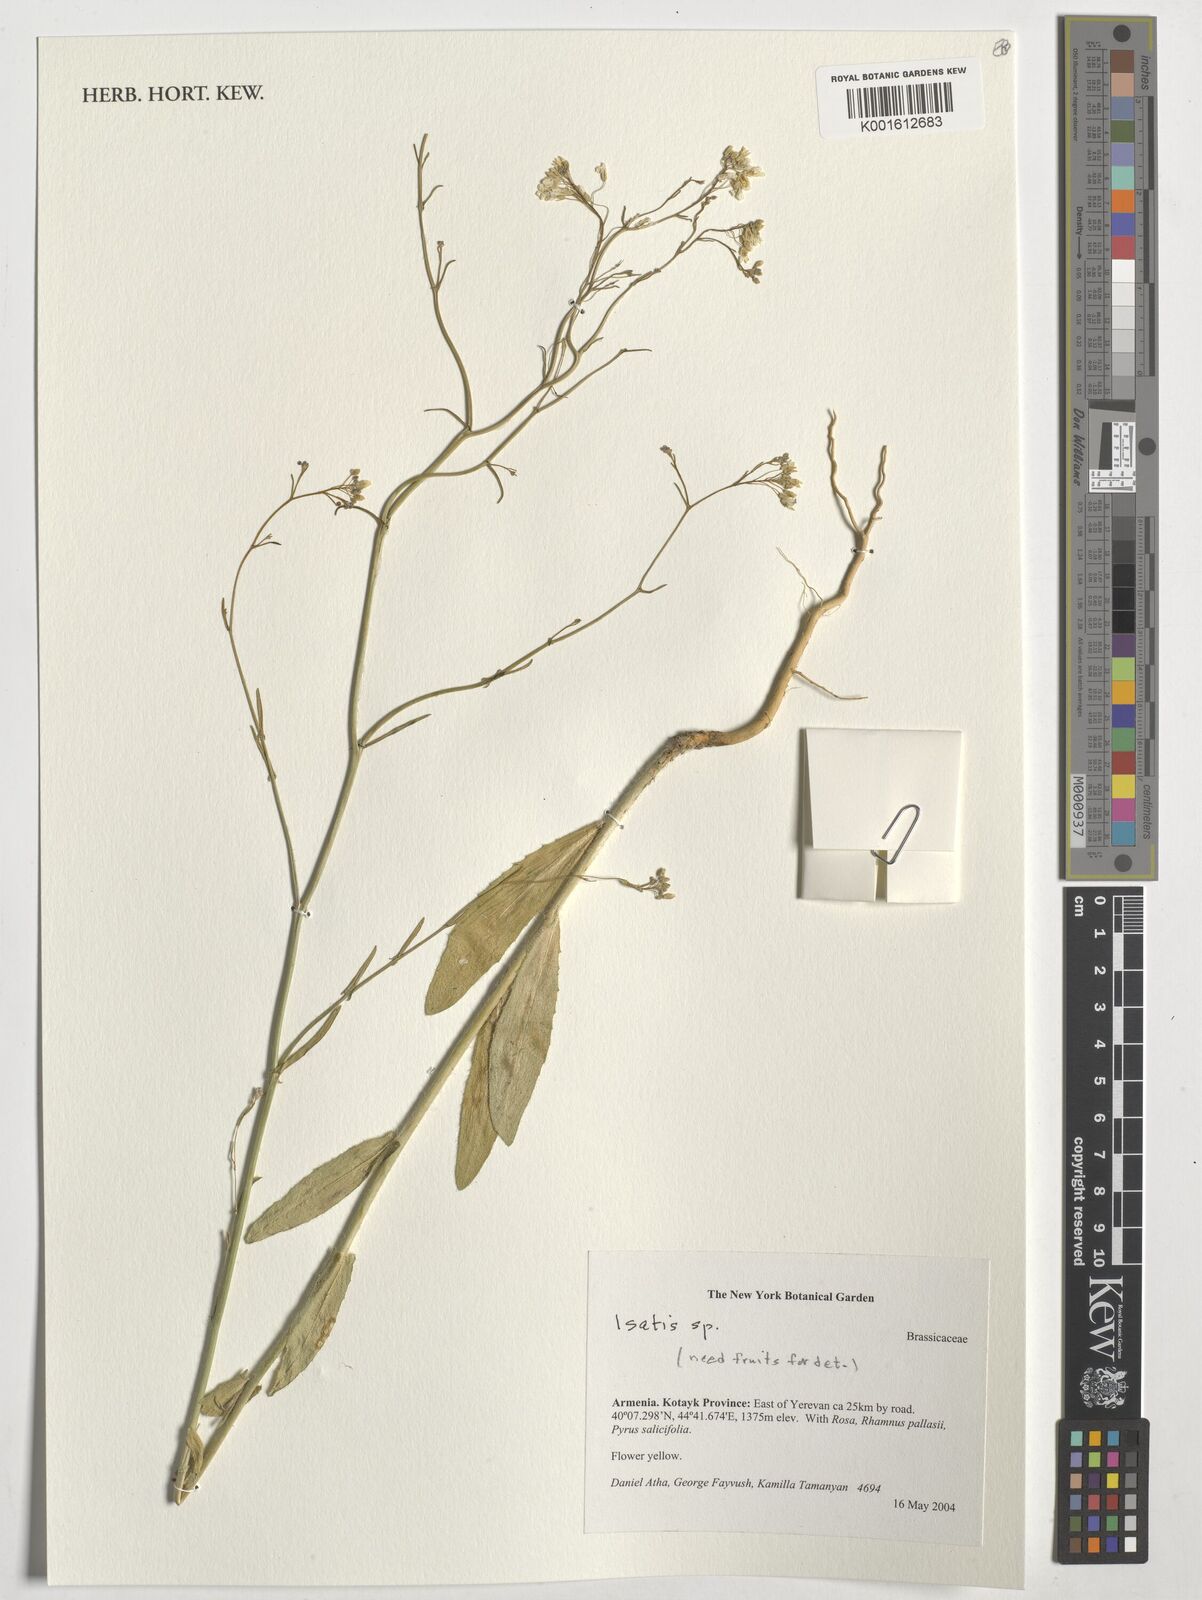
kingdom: Plantae
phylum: Tracheophyta
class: Magnoliopsida
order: Brassicales
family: Brassicaceae
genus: Isatis
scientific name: Isatis
